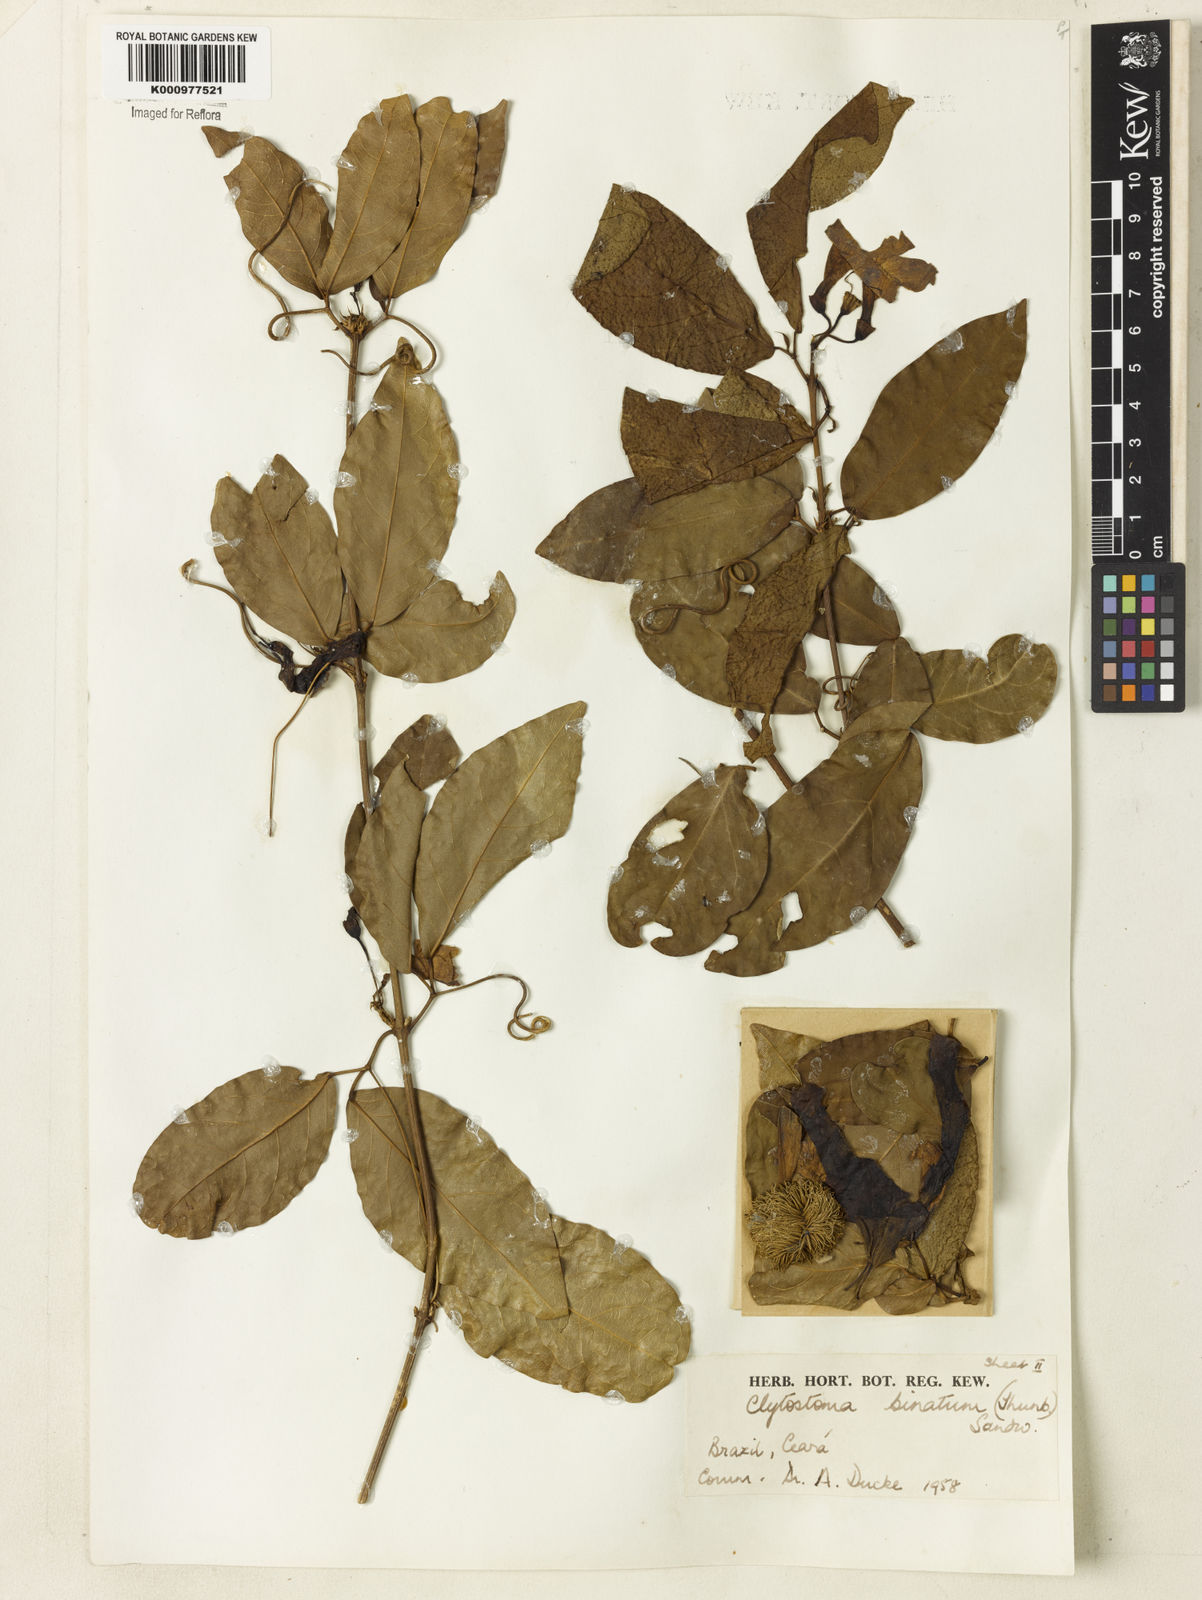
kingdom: Plantae
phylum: Tracheophyta
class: Magnoliopsida
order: Lamiales
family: Bignoniaceae
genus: Bignonia
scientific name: Bignonia binata
